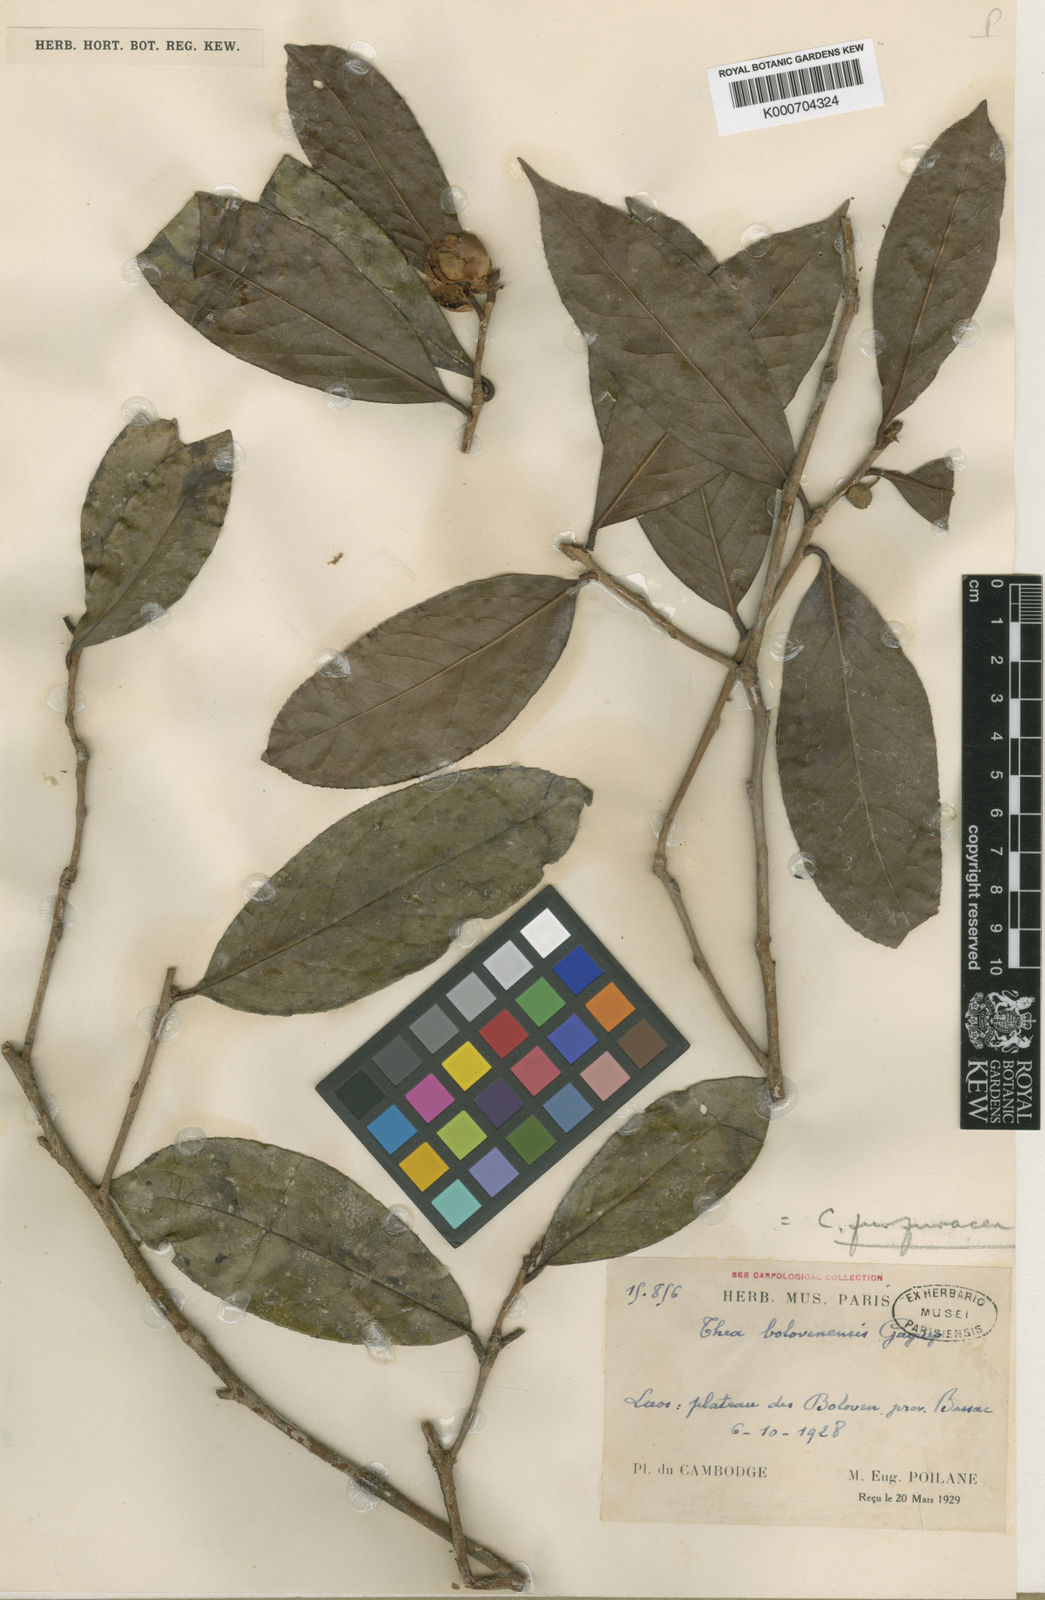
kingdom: Plantae
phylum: Tracheophyta
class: Magnoliopsida
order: Ericales
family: Theaceae
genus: Camellia
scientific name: Camellia furfuracea
